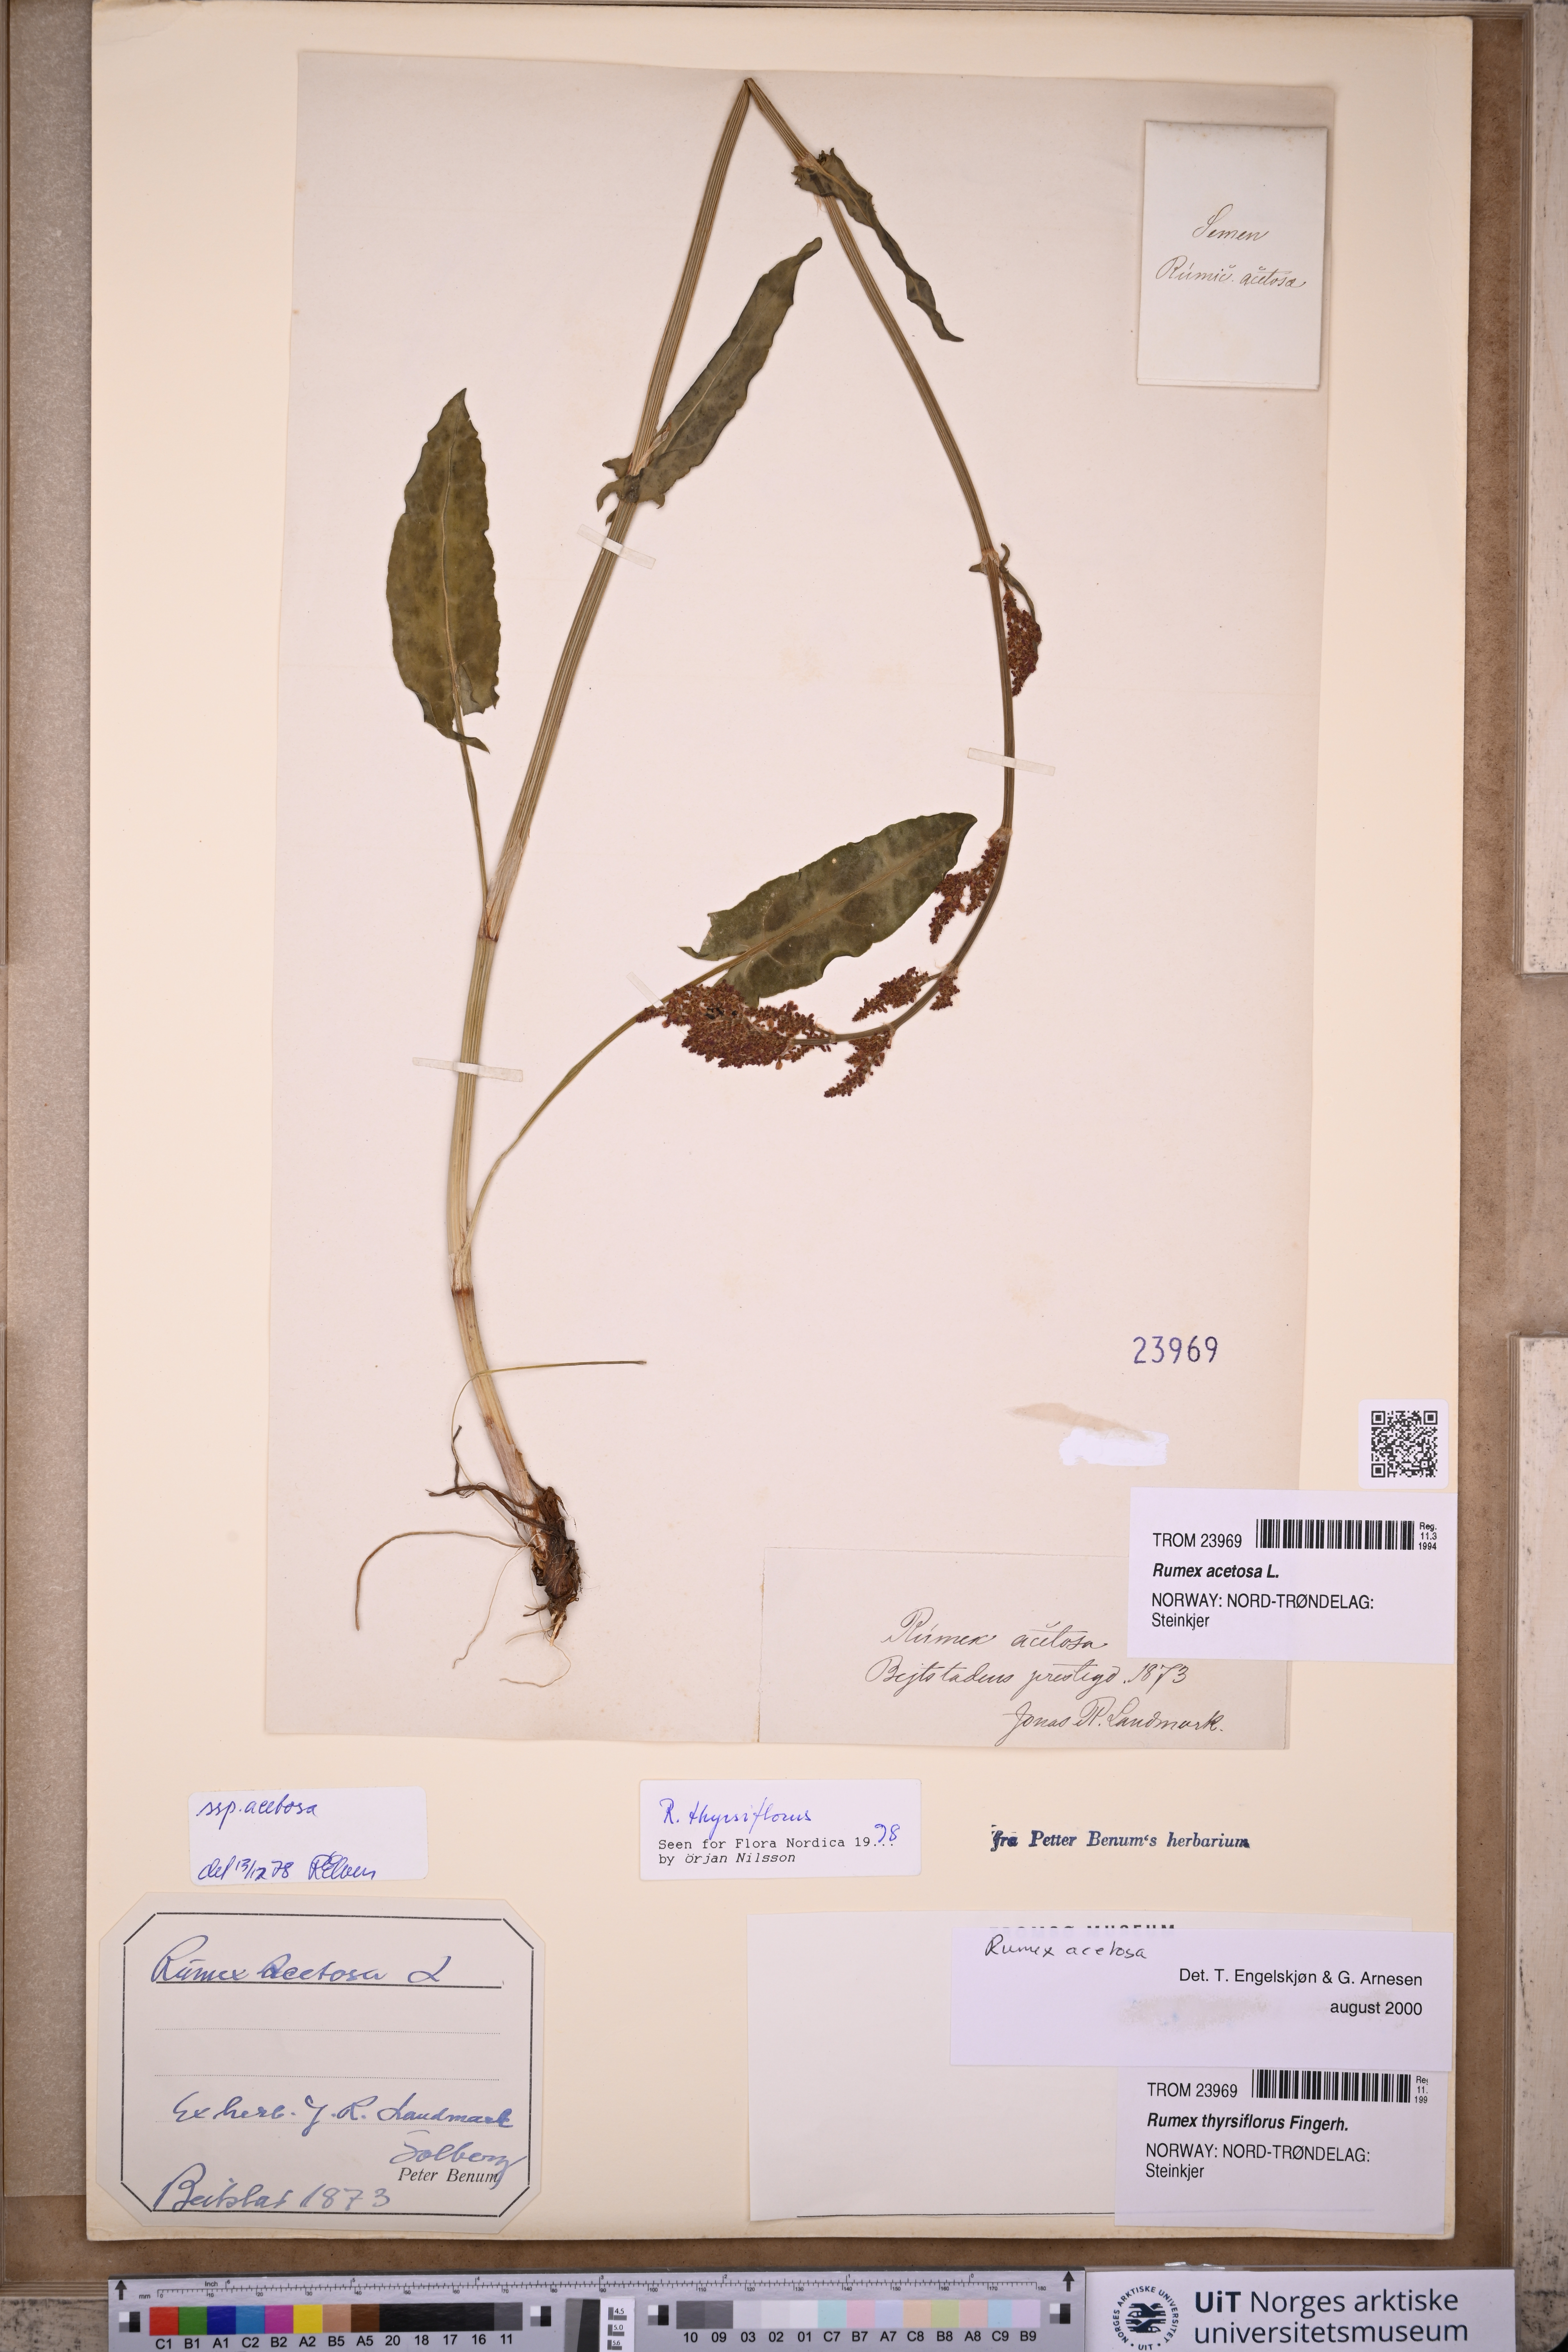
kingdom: Plantae
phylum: Tracheophyta
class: Magnoliopsida
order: Caryophyllales
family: Polygonaceae
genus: Rumex
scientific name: Rumex acetosa
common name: Garden sorrel
